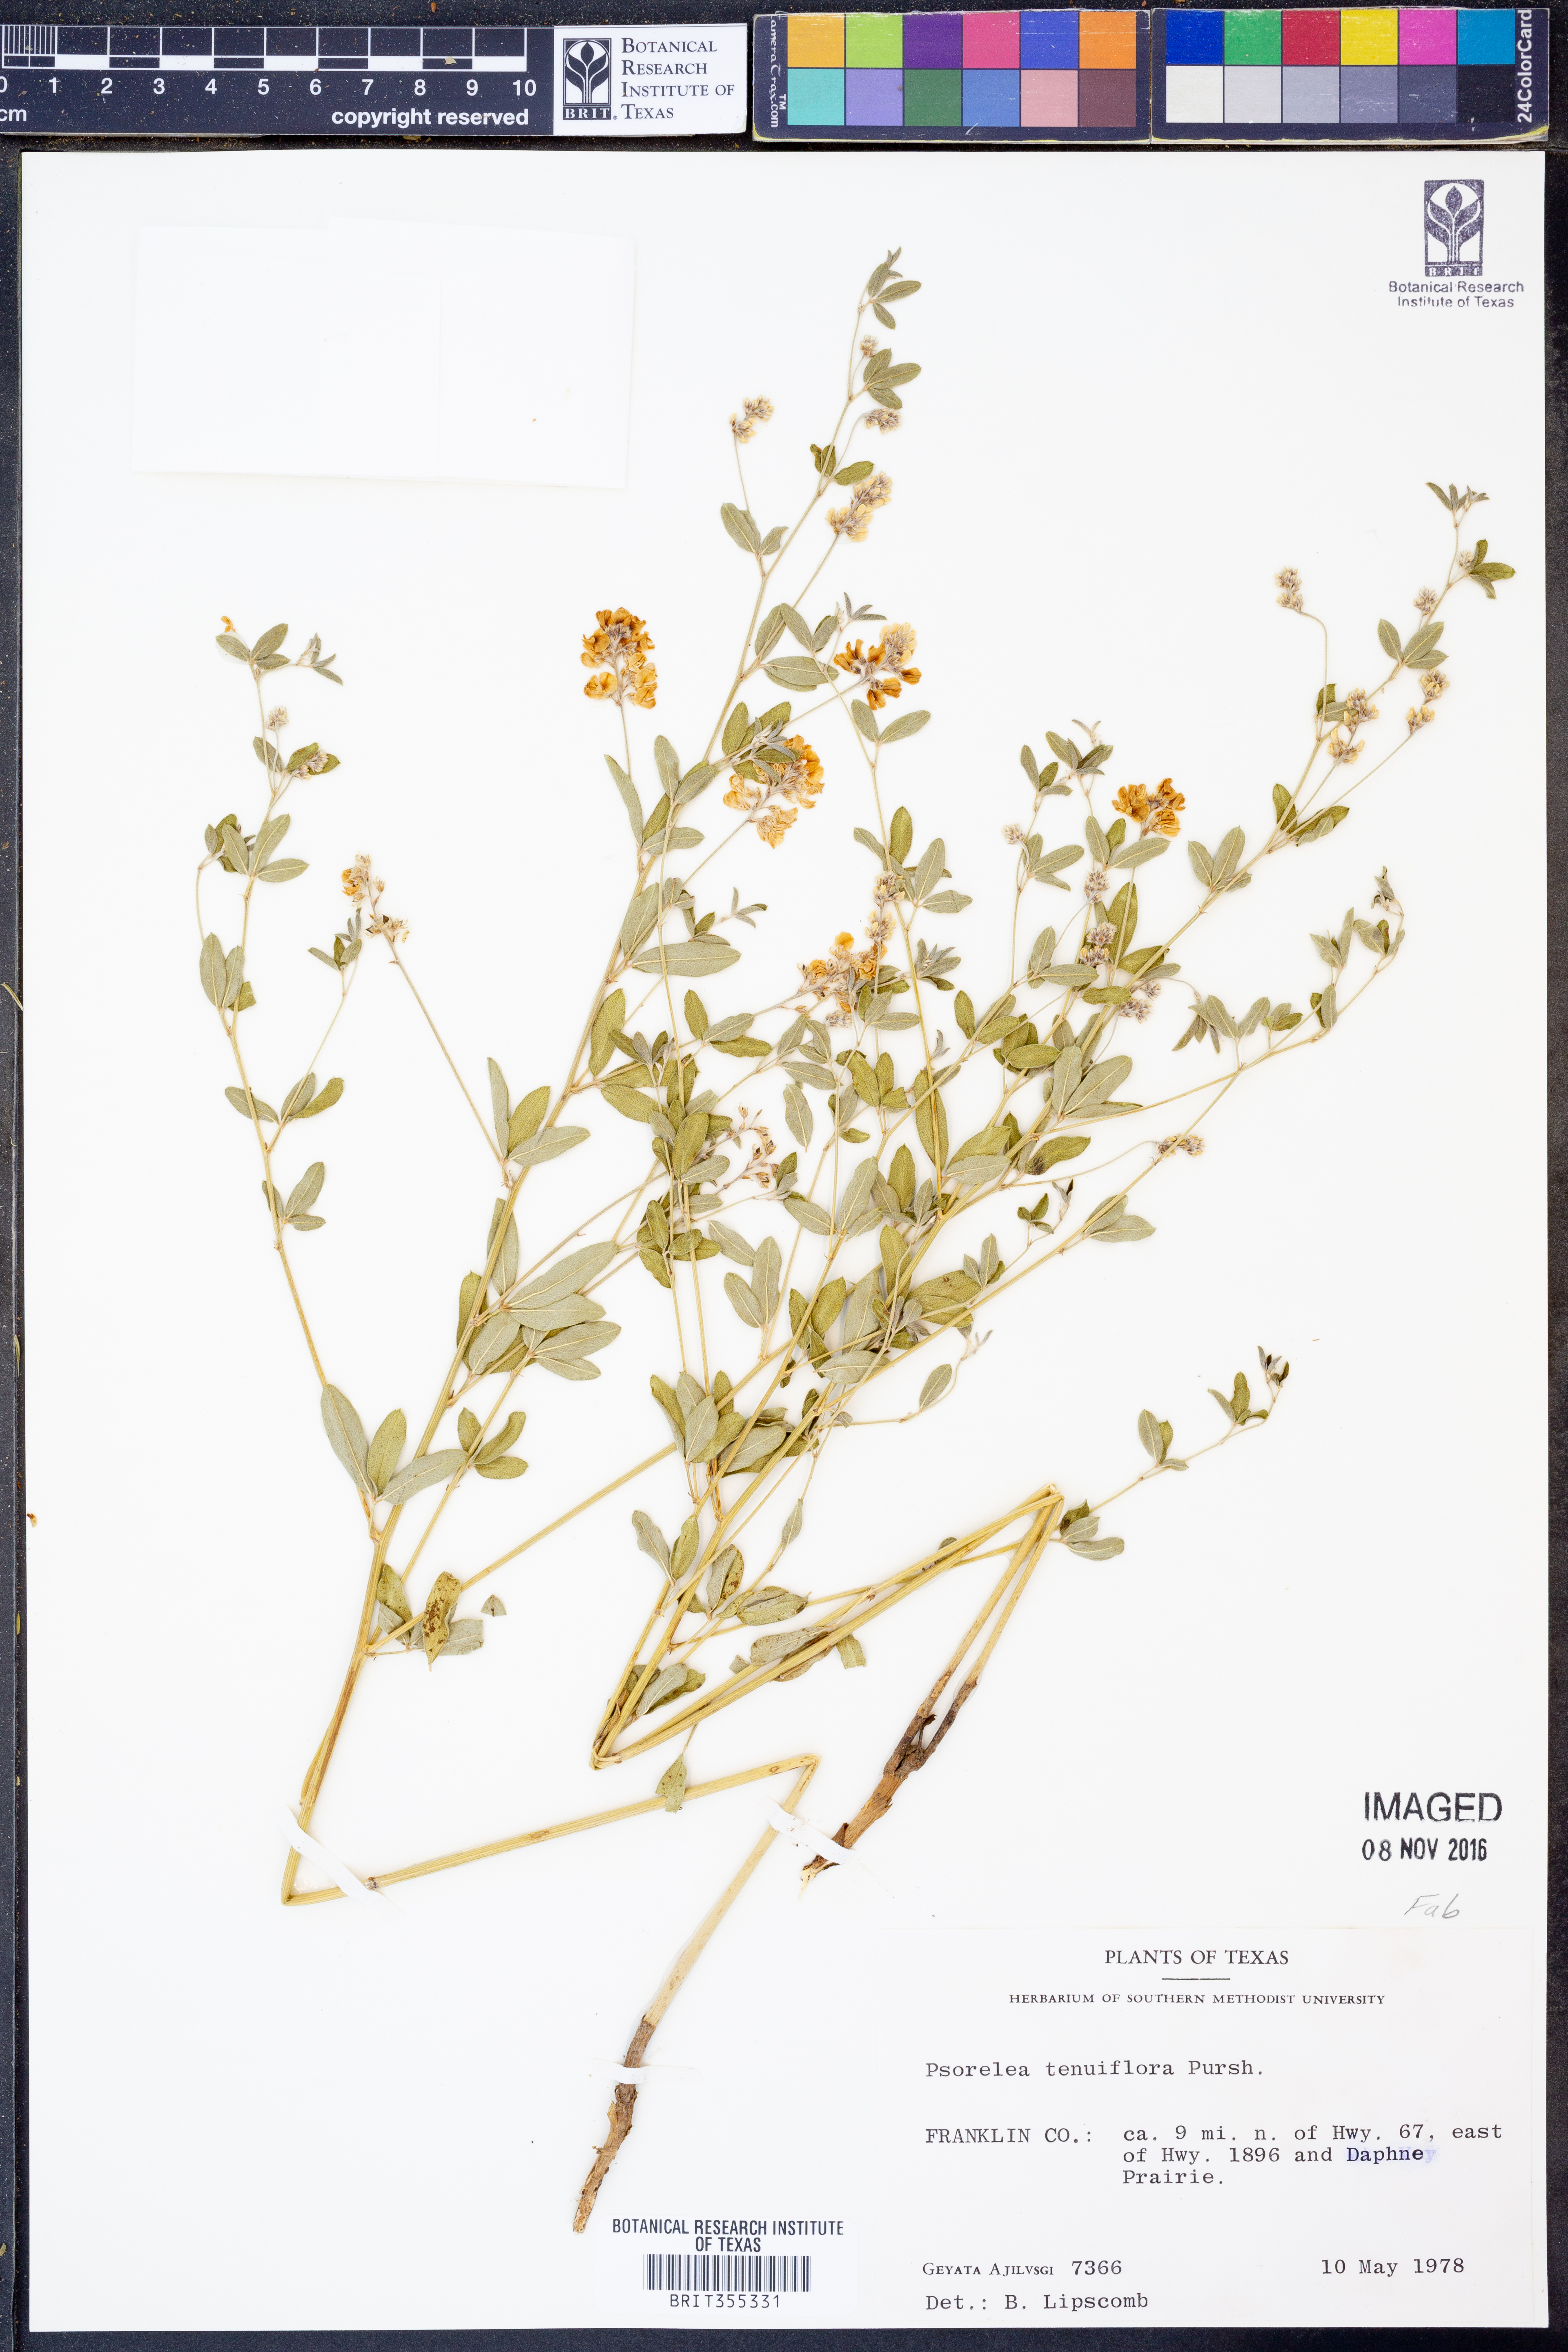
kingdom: Plantae
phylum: Tracheophyta
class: Magnoliopsida
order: Fabales
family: Fabaceae
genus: Pediomelum
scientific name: Pediomelum tenuiflorum
